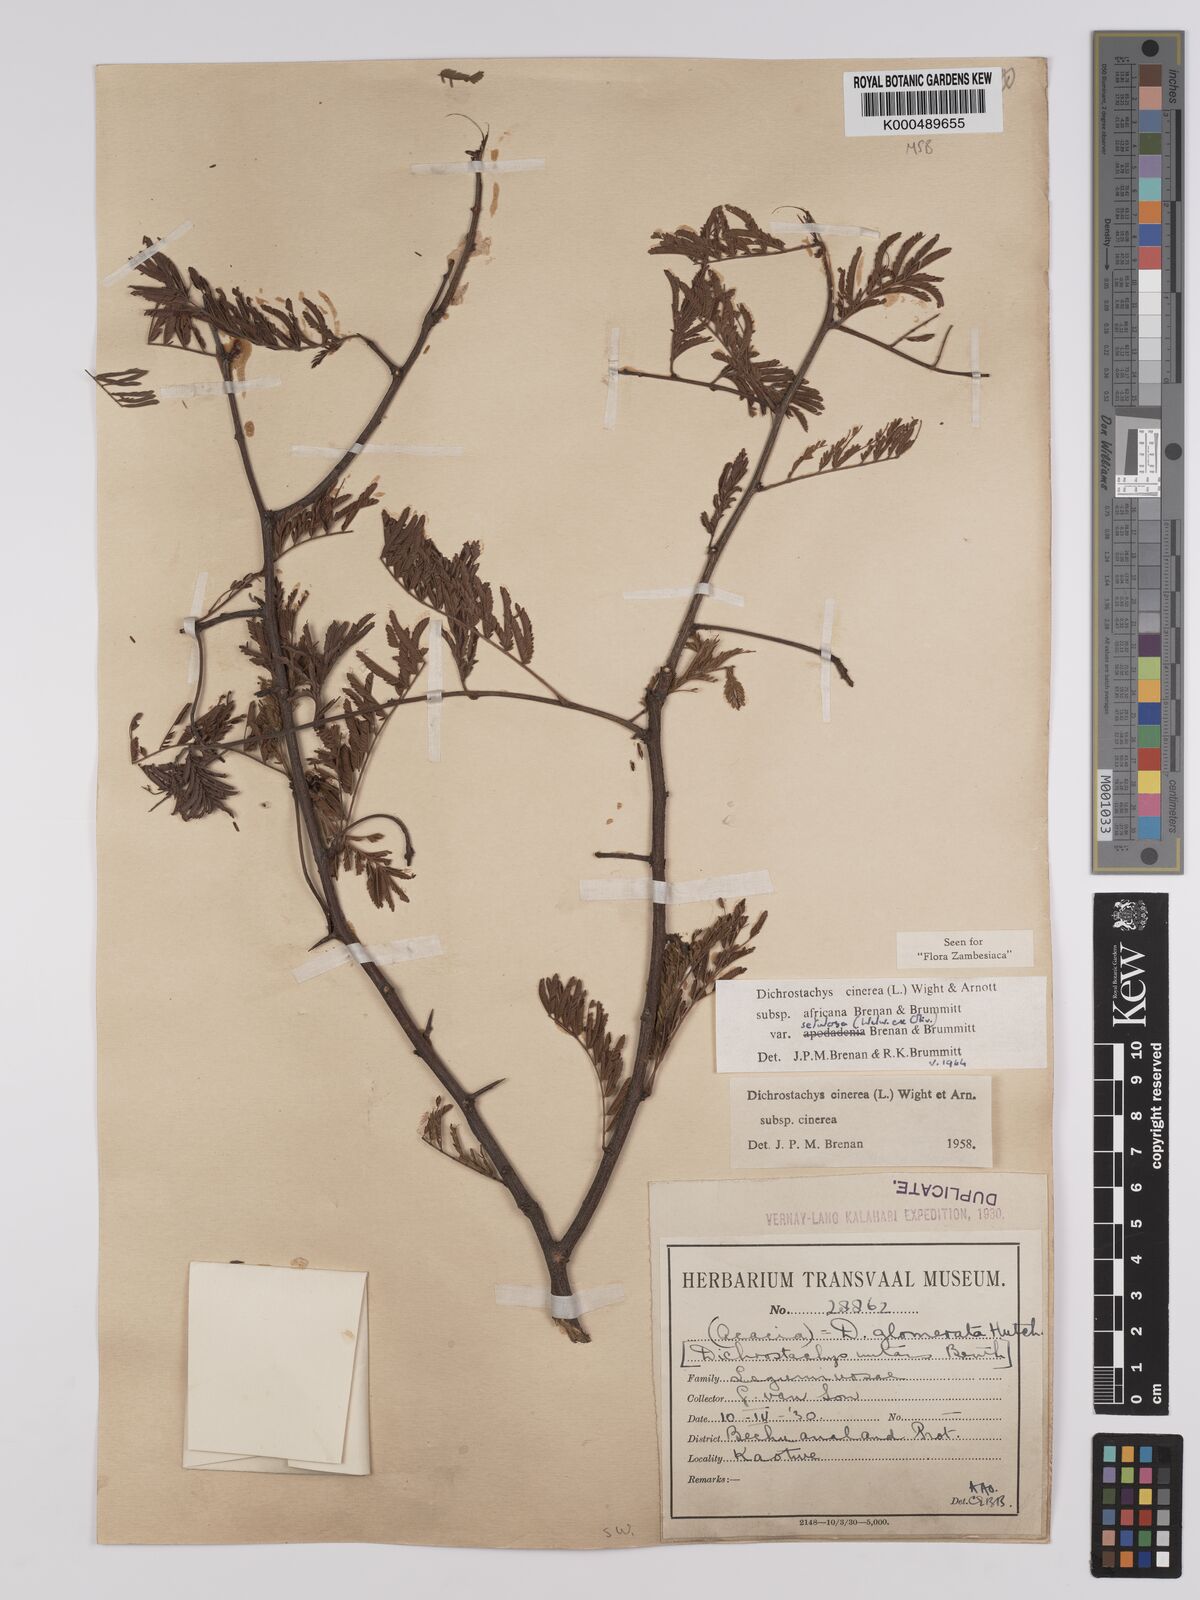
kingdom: Plantae
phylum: Tracheophyta
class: Magnoliopsida
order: Fabales
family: Fabaceae
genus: Dichrostachys
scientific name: Dichrostachys cinerea
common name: Sicklebush
